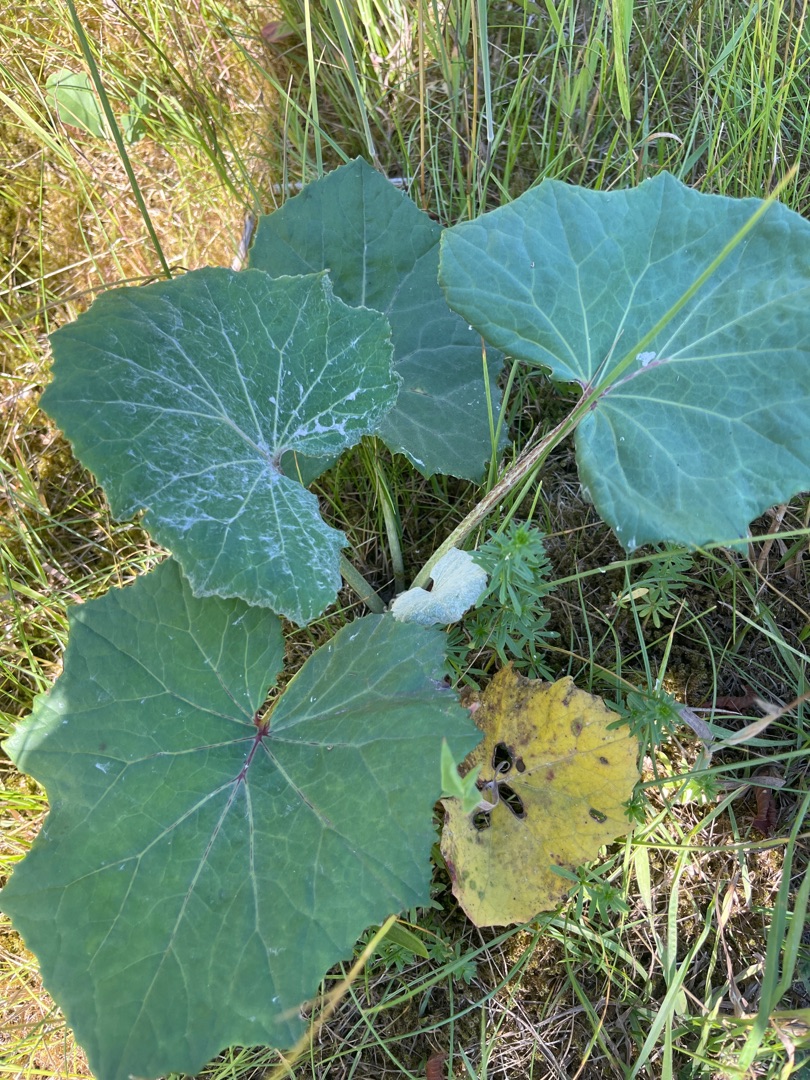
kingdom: Plantae
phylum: Tracheophyta
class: Magnoliopsida
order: Asterales
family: Asteraceae
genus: Tussilago
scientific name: Tussilago farfara
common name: Følfod
